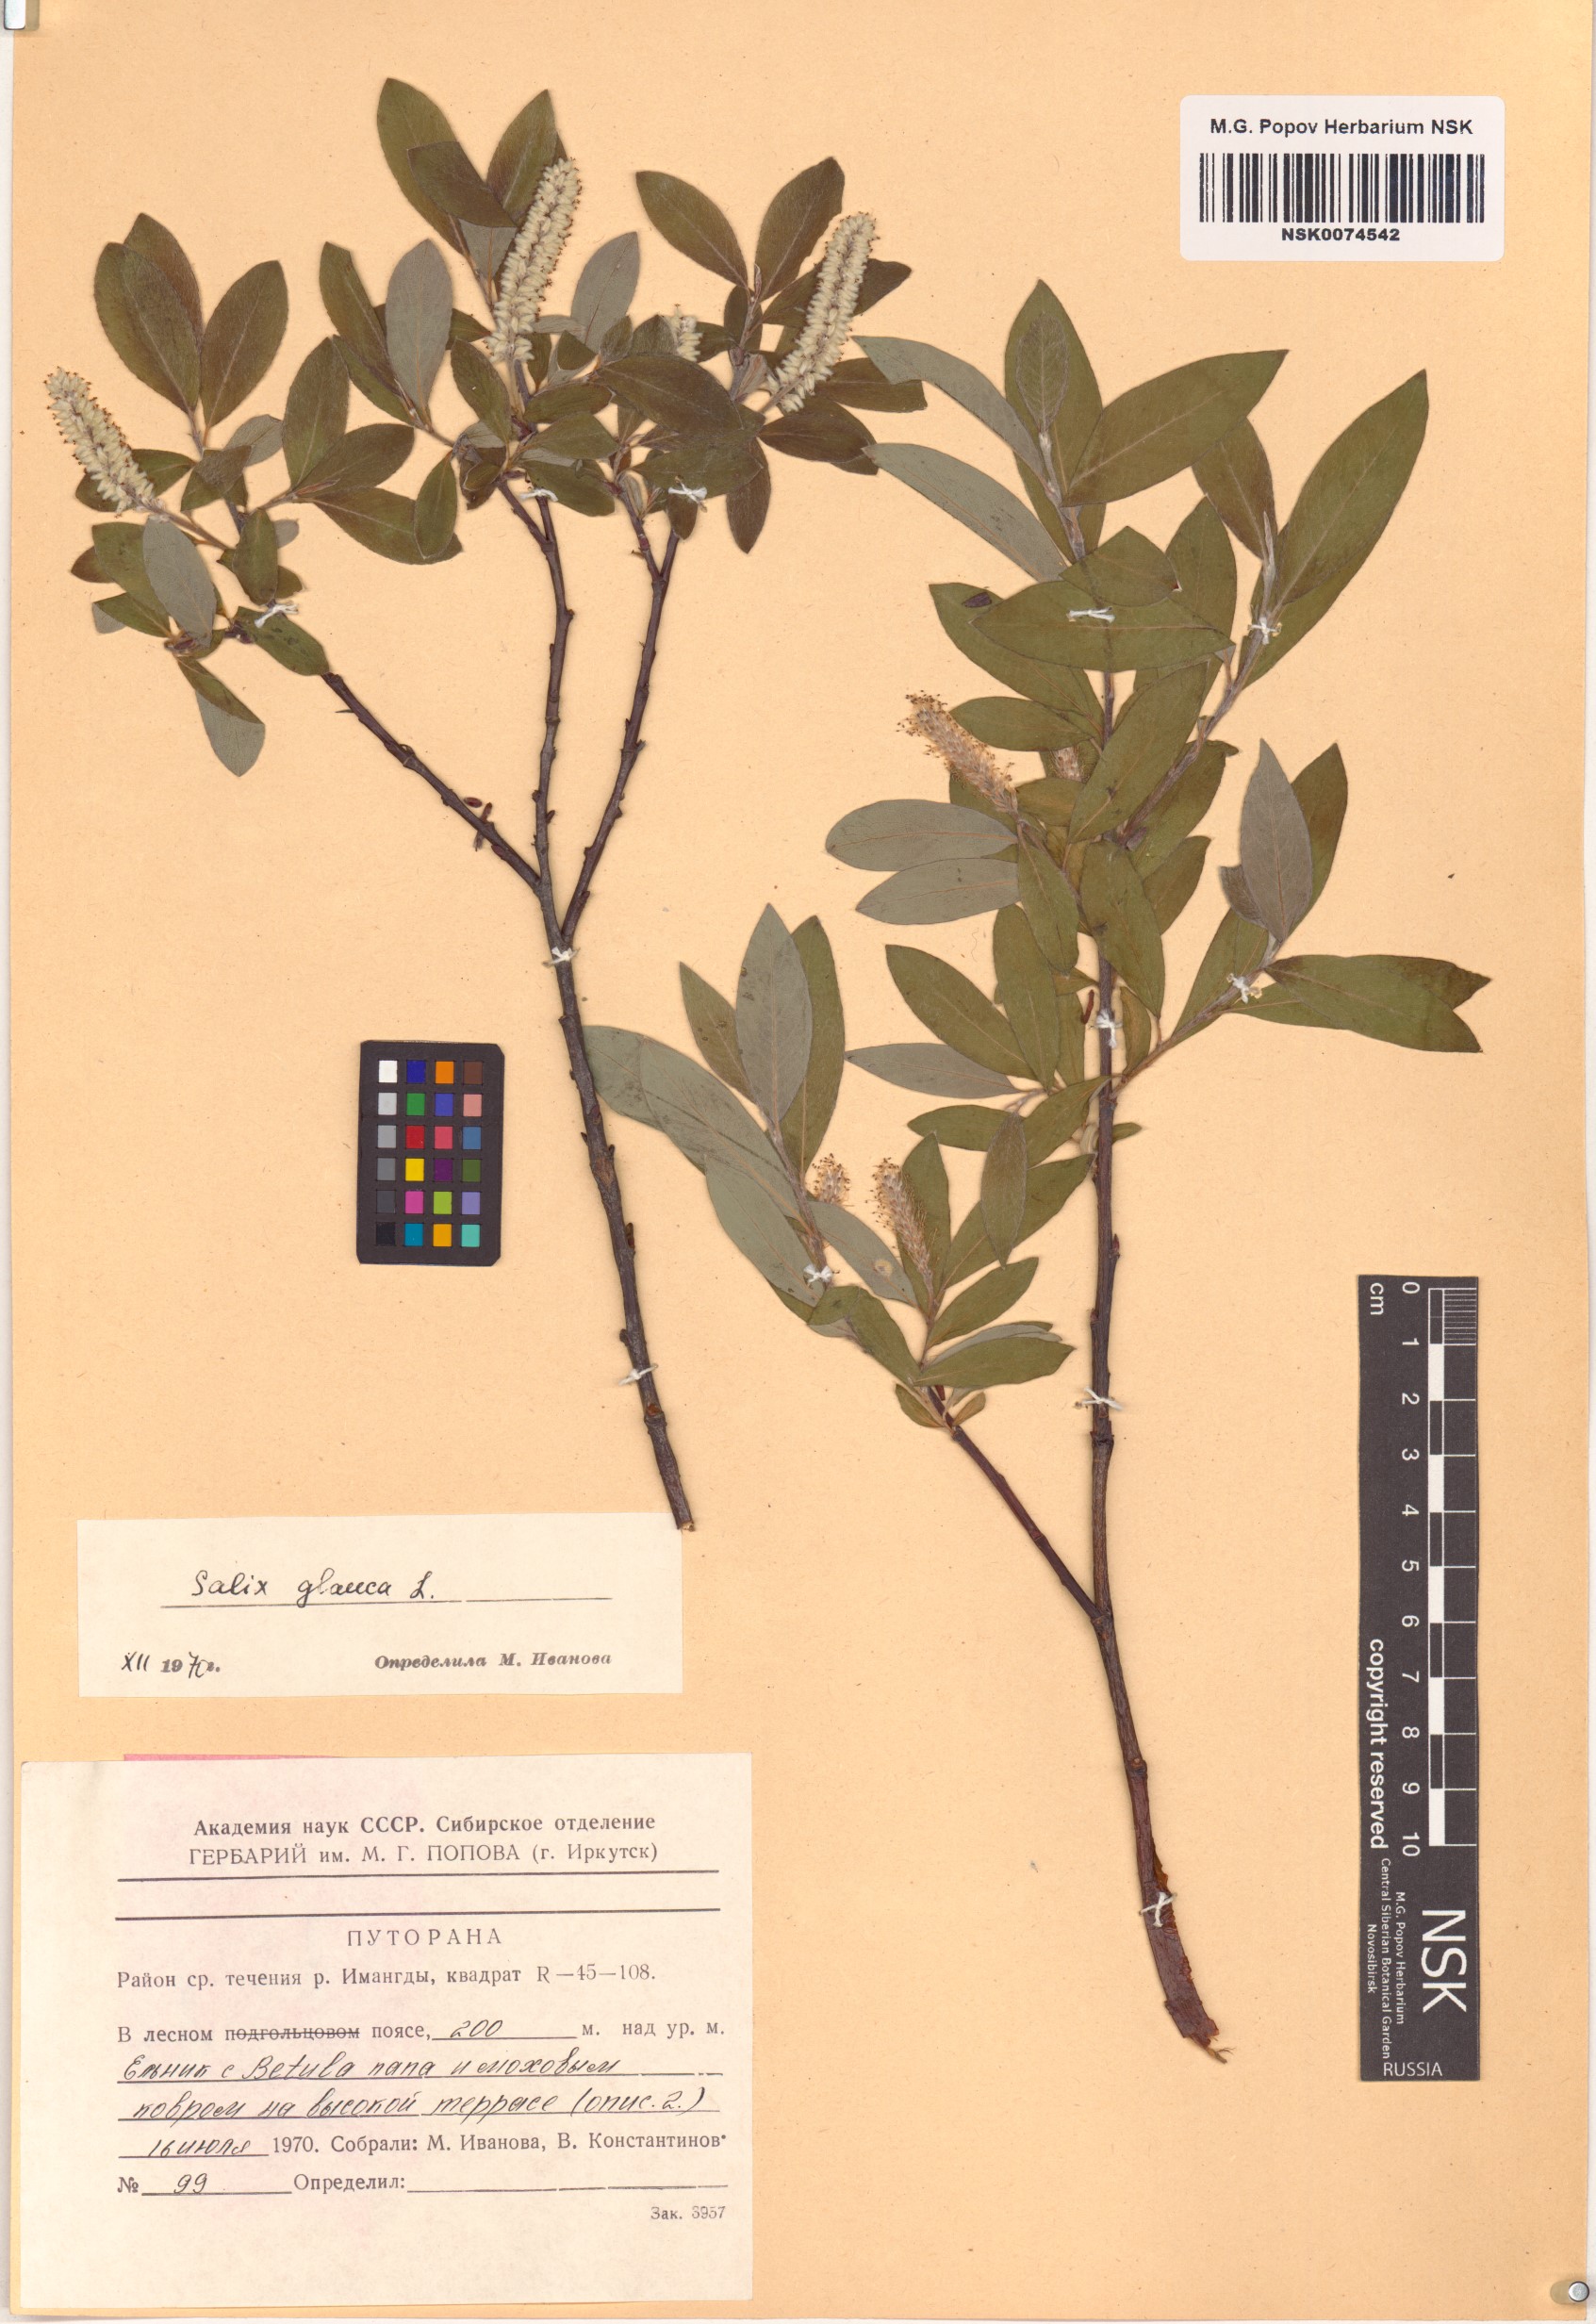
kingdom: Plantae
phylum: Tracheophyta
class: Magnoliopsida
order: Malpighiales
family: Salicaceae
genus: Salix
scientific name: Salix glauca
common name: Glaucous willow
